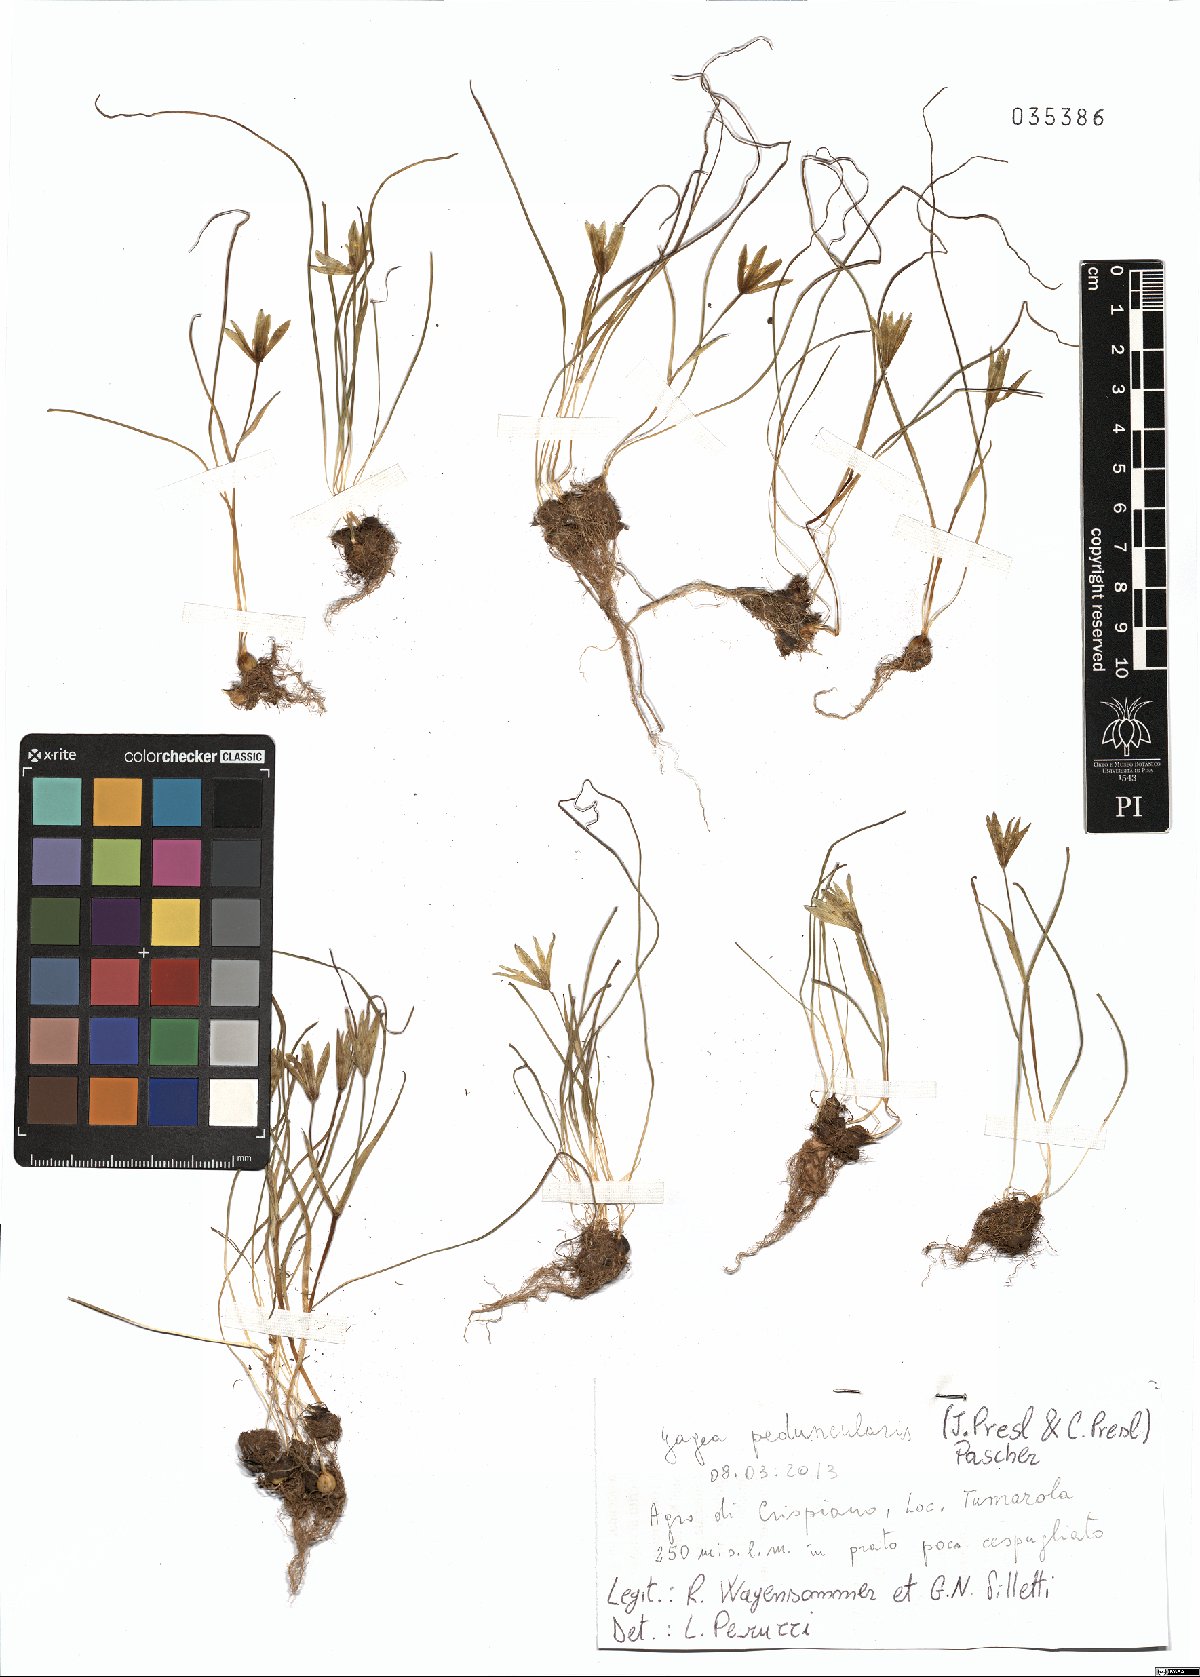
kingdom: Plantae
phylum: Tracheophyta
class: Liliopsida
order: Liliales
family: Liliaceae
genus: Gagea
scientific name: Gagea peduncularis
